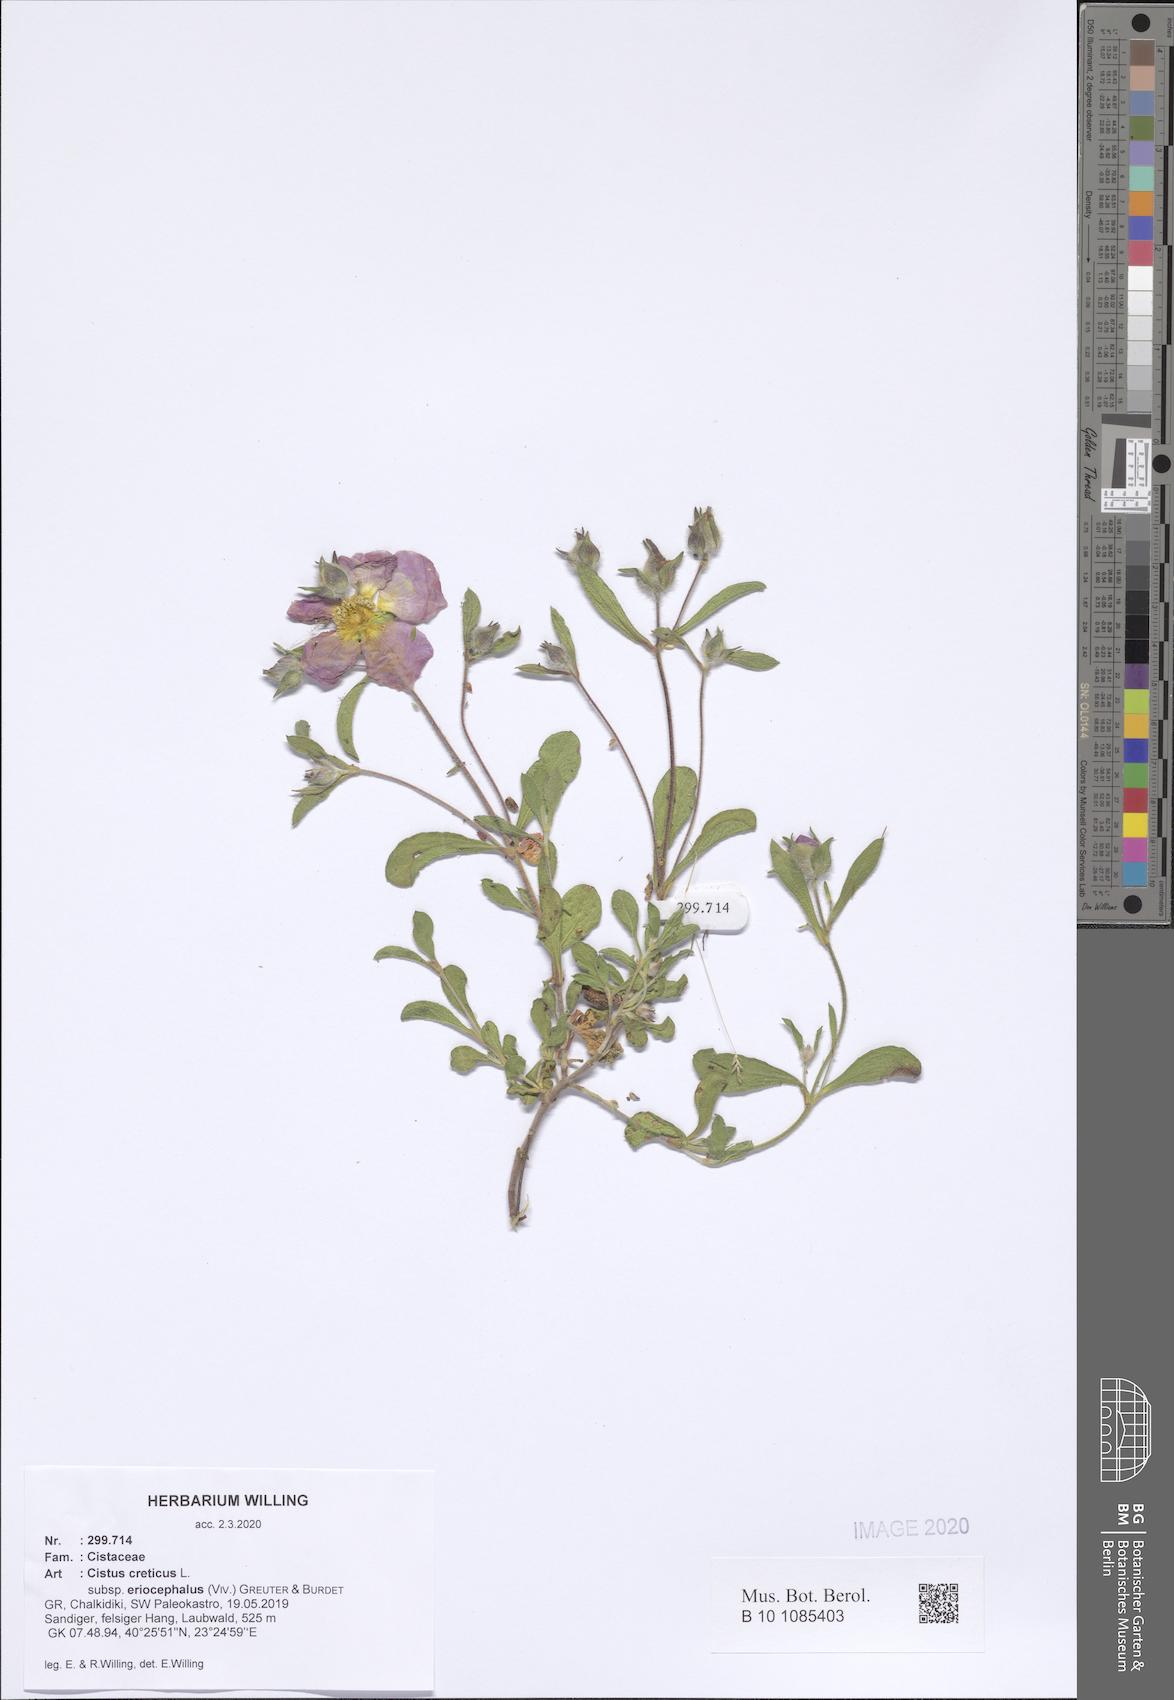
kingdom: Plantae
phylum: Tracheophyta
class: Magnoliopsida
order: Malvales
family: Cistaceae
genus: Cistus
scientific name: Cistus tauricus
